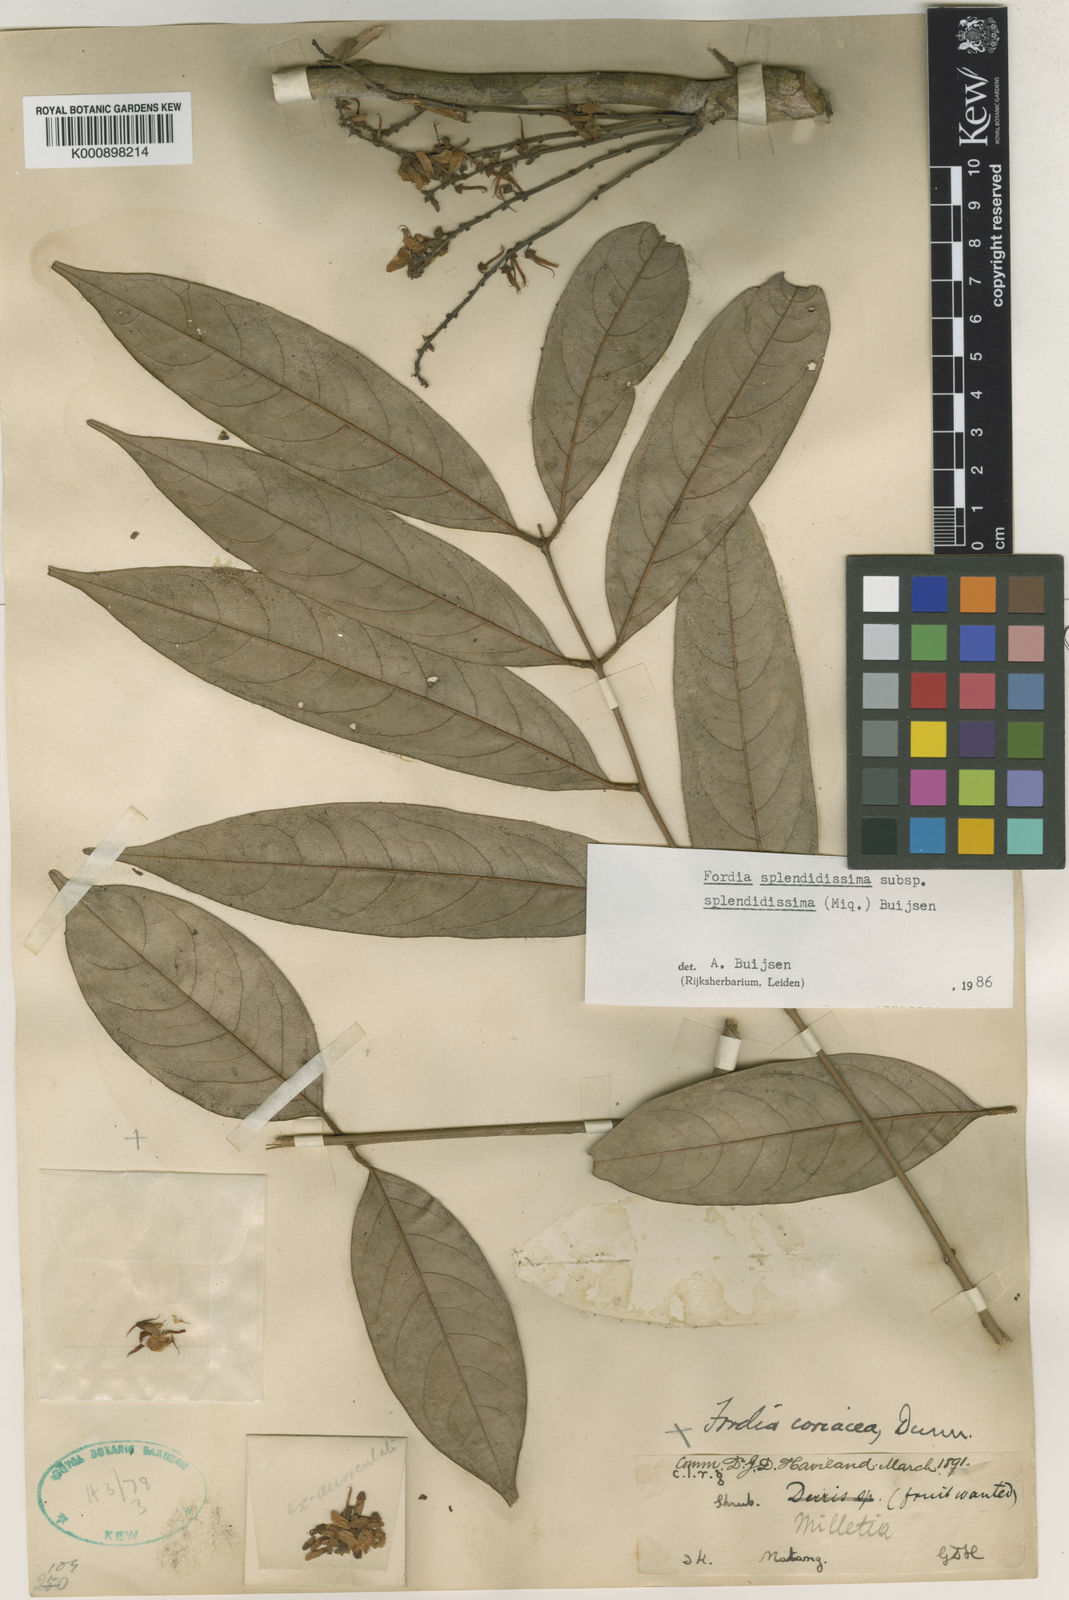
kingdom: Plantae
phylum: Tracheophyta
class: Magnoliopsida
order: Fabales
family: Fabaceae
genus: Fordia
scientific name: Fordia splendidissima
